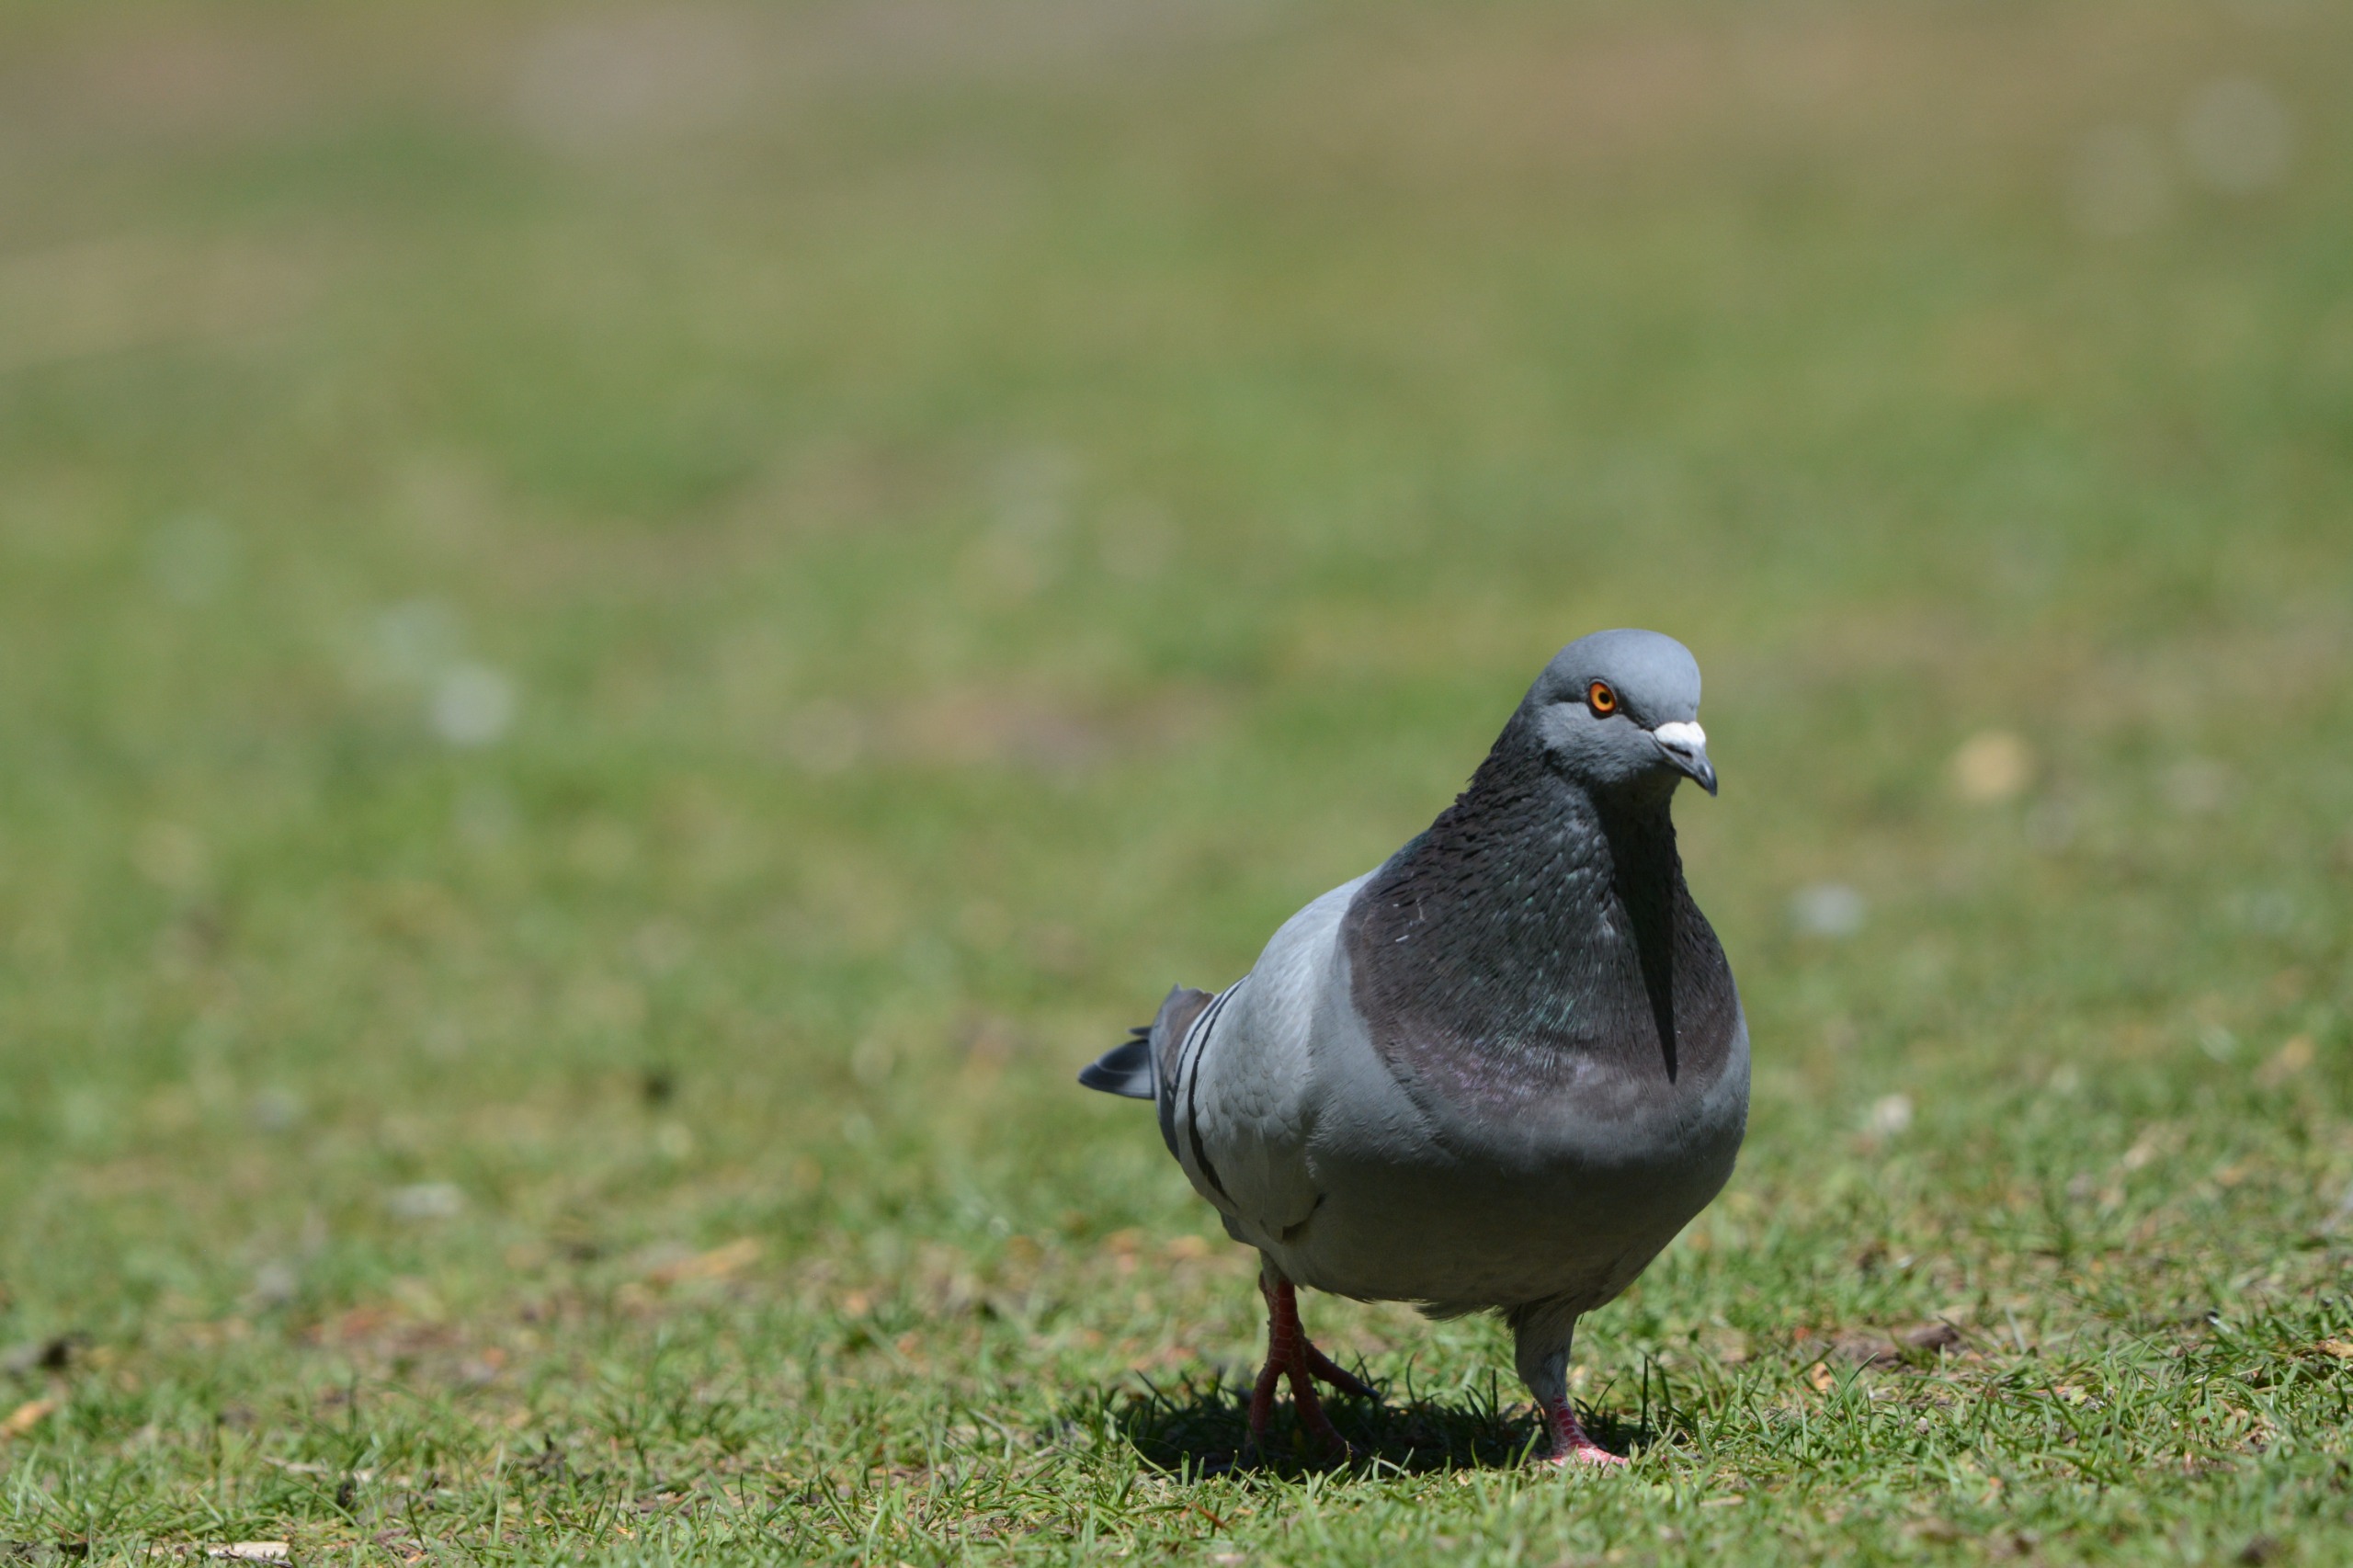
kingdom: Animalia
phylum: Chordata
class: Aves
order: Columbiformes
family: Columbidae
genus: Columba
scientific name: Columba livia
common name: Tamdue
